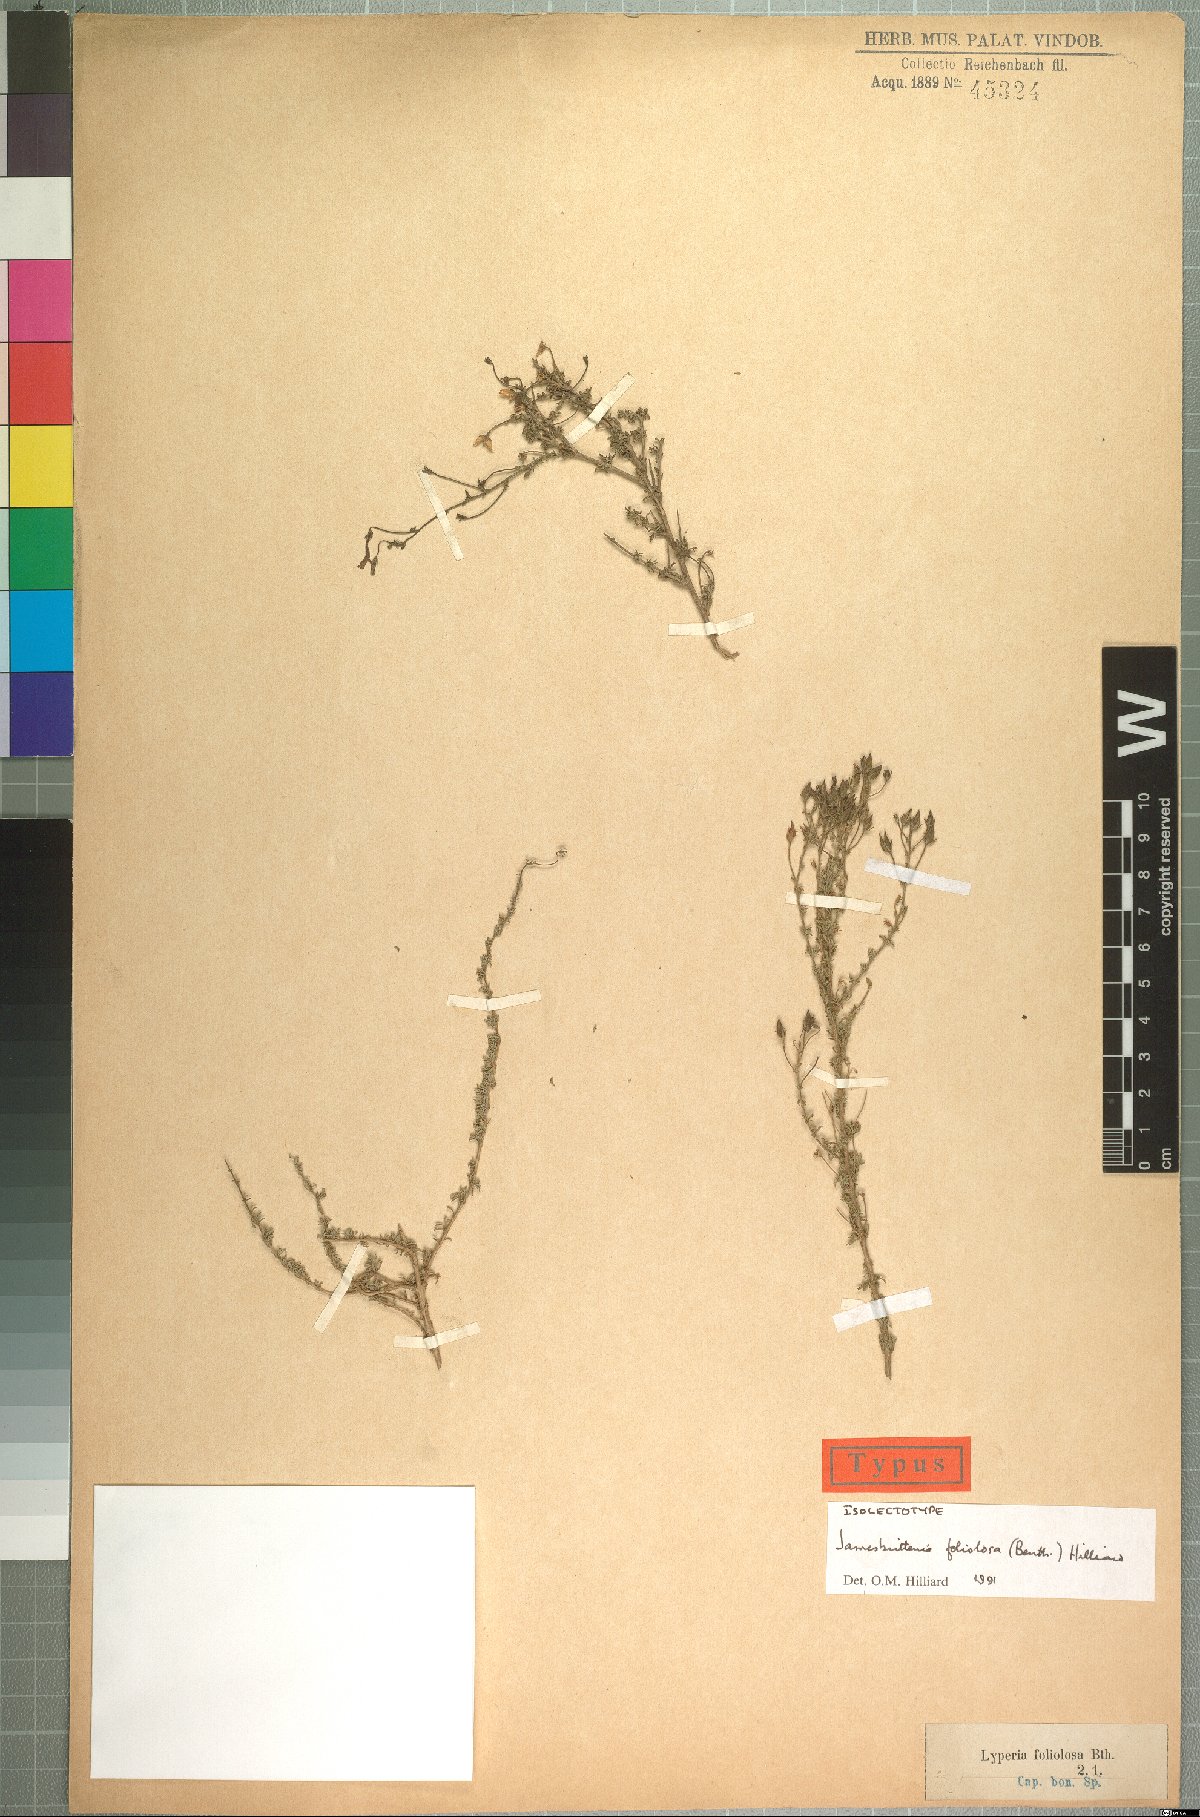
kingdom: Plantae
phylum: Tracheophyta
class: Magnoliopsida
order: Lamiales
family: Scrophulariaceae
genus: Jamesbrittenia
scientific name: Jamesbrittenia foliolosa
